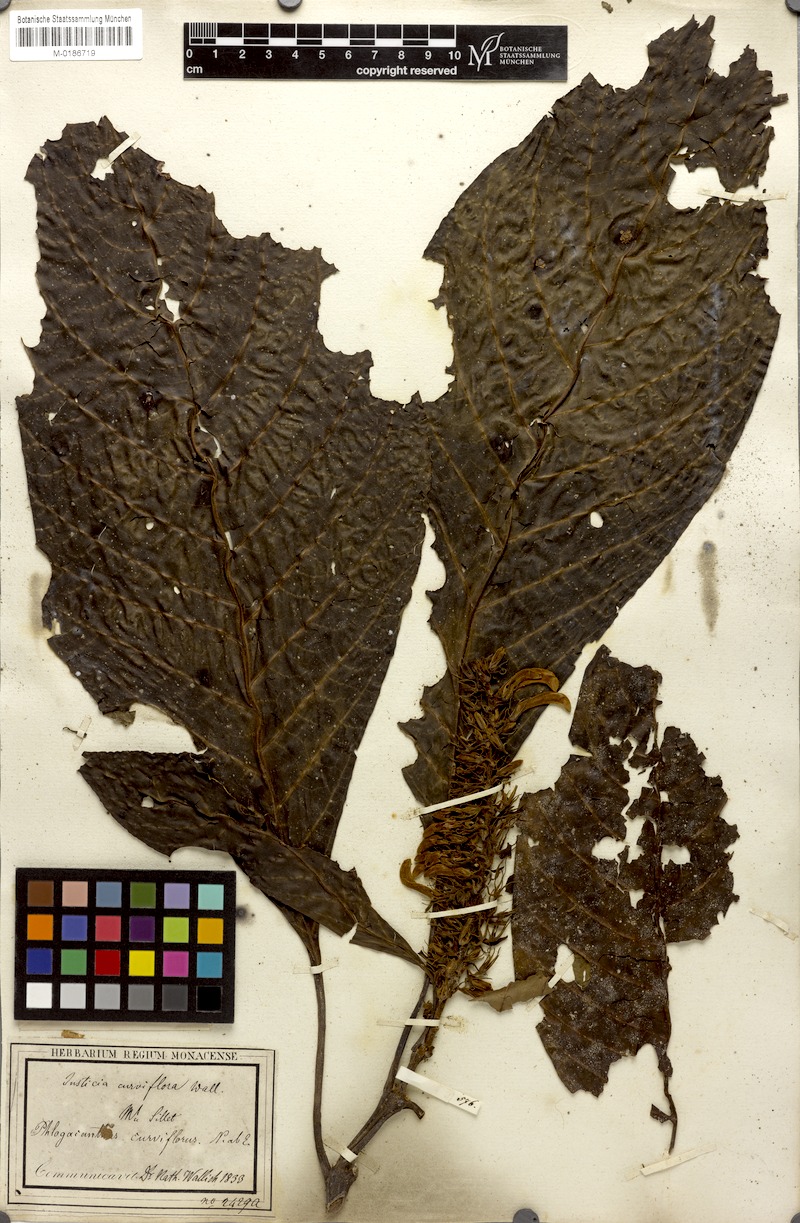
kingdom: Plantae
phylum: Tracheophyta
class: Magnoliopsida
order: Lamiales
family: Acanthaceae
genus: Phlogacanthus
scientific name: Phlogacanthus curviflorus
